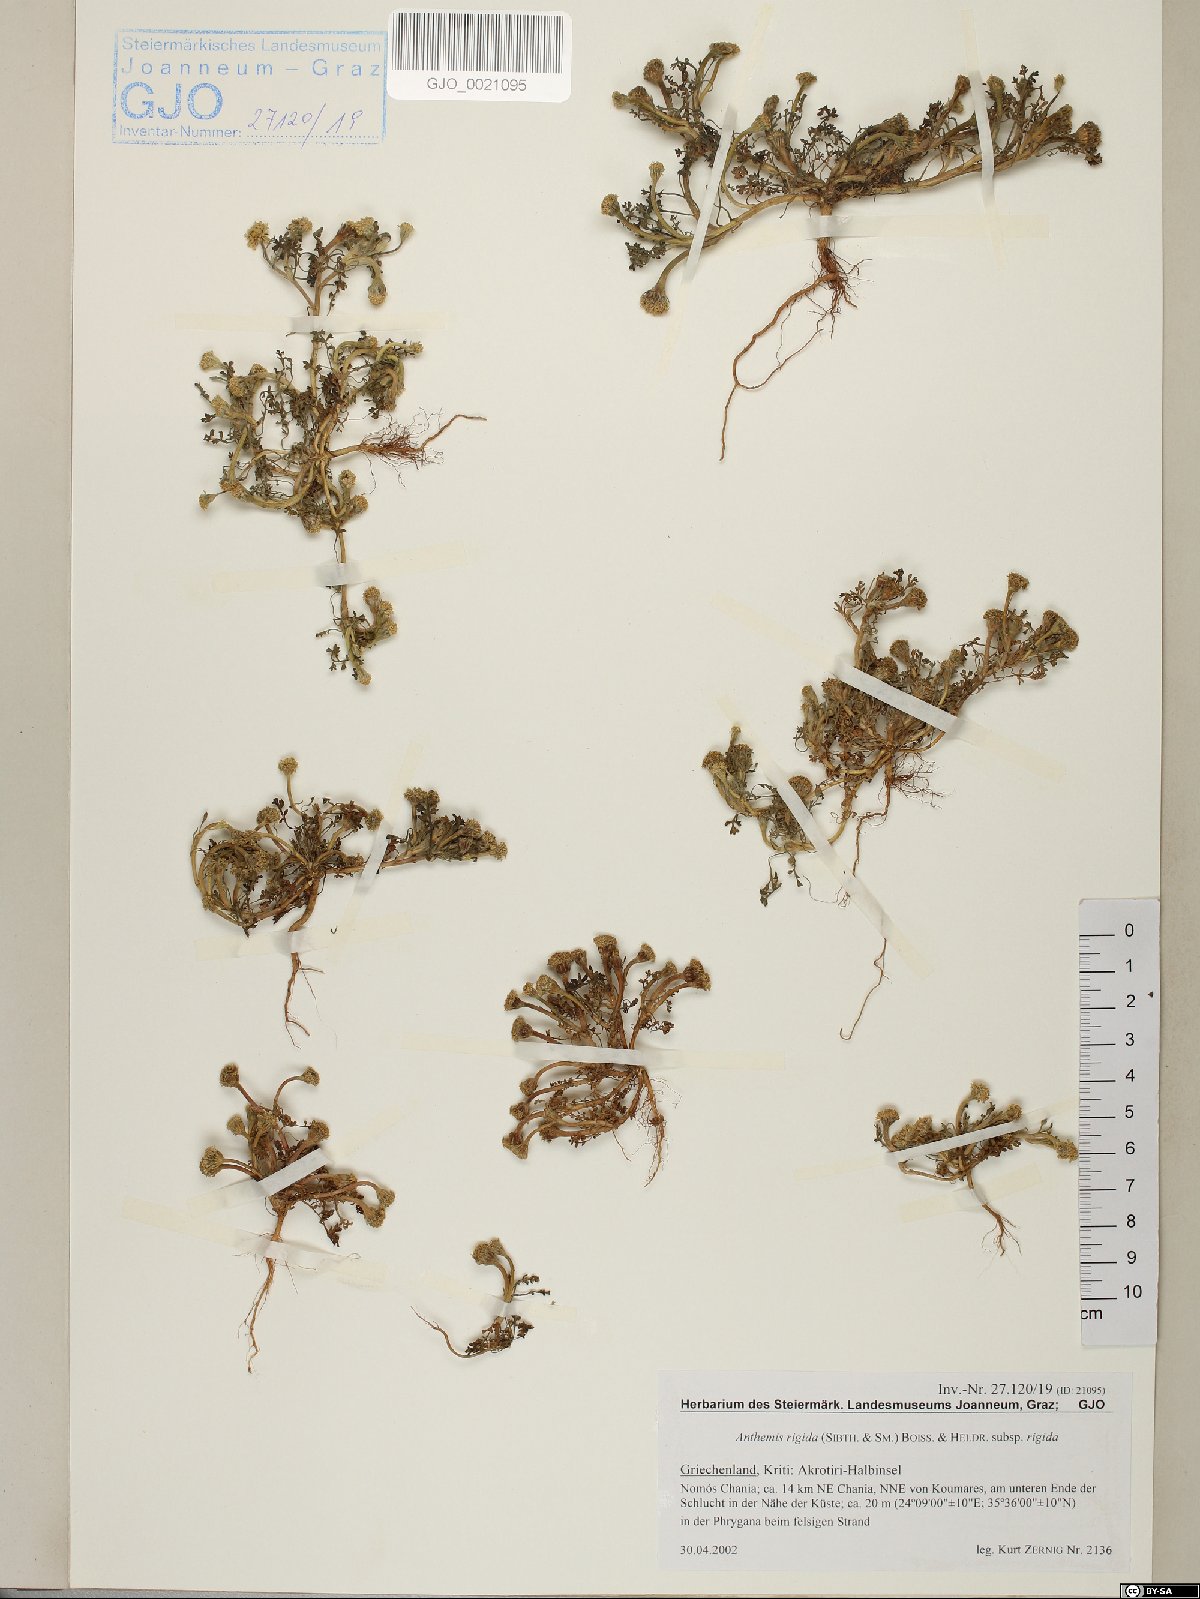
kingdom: Plantae
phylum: Tracheophyta
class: Magnoliopsida
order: Asterales
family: Asteraceae
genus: Anthemis
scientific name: Anthemis rigida
